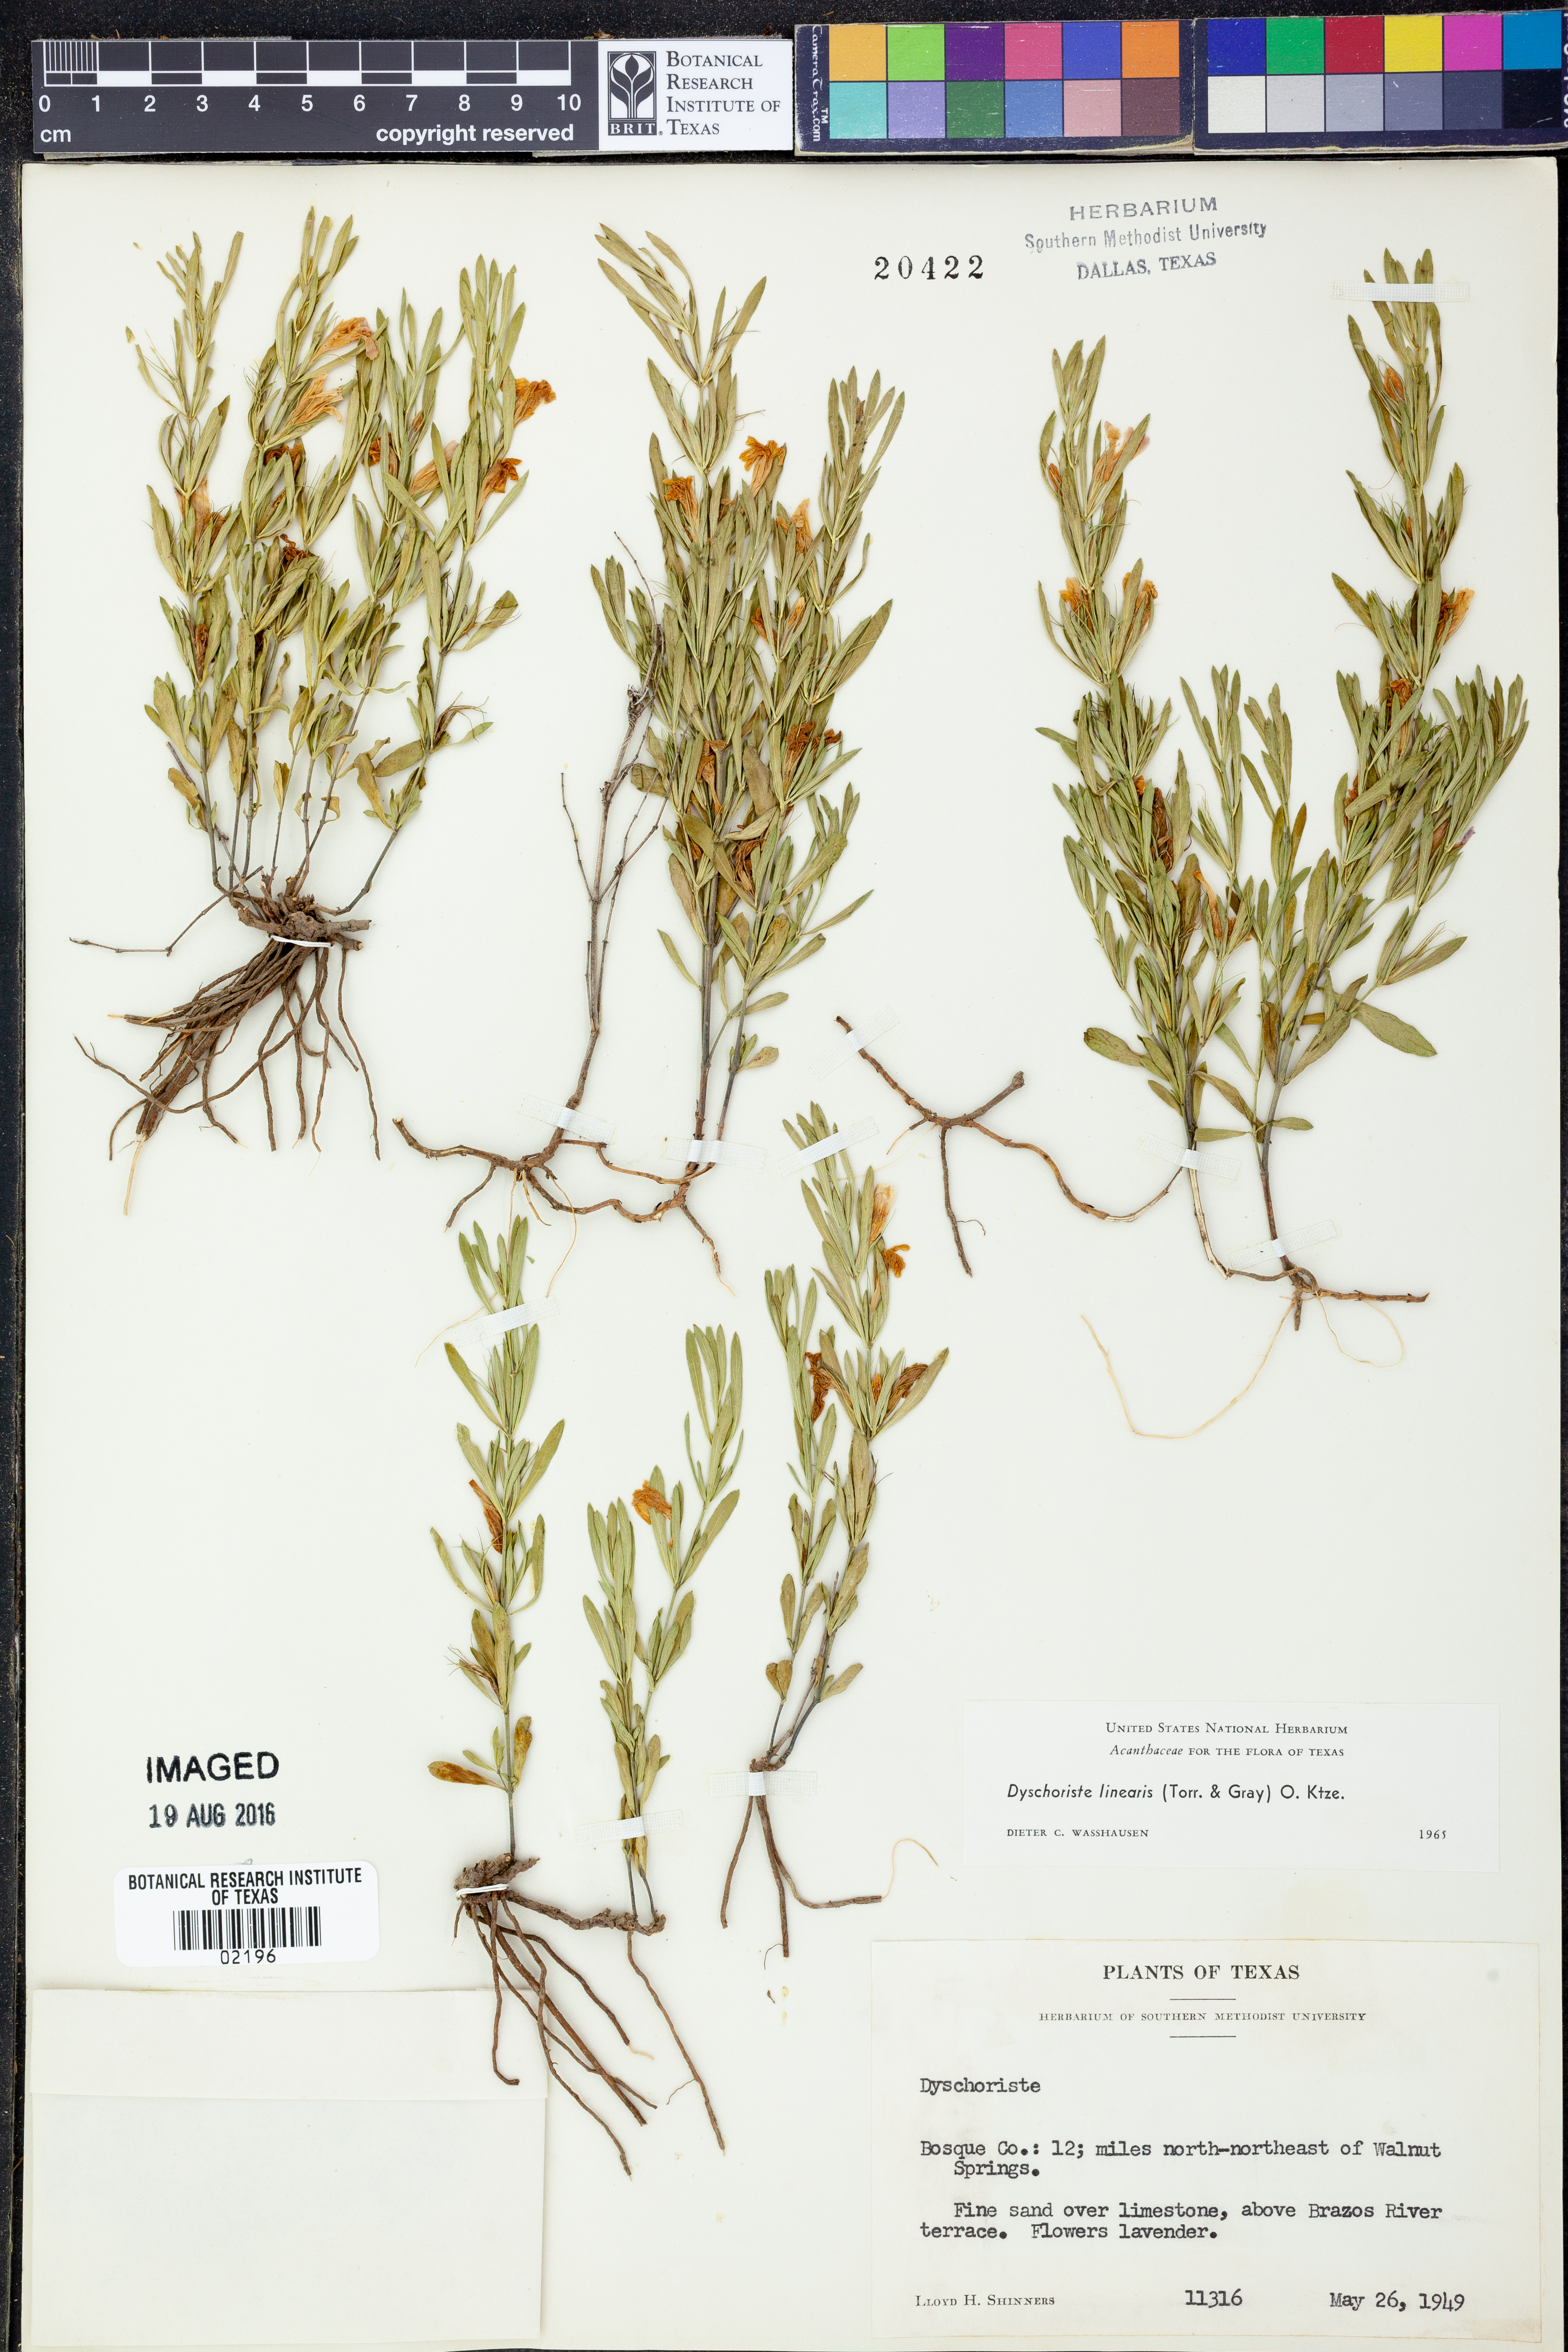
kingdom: Plantae
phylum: Tracheophyta
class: Magnoliopsida
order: Lamiales
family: Acanthaceae
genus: Dyschoriste
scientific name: Dyschoriste linearis
